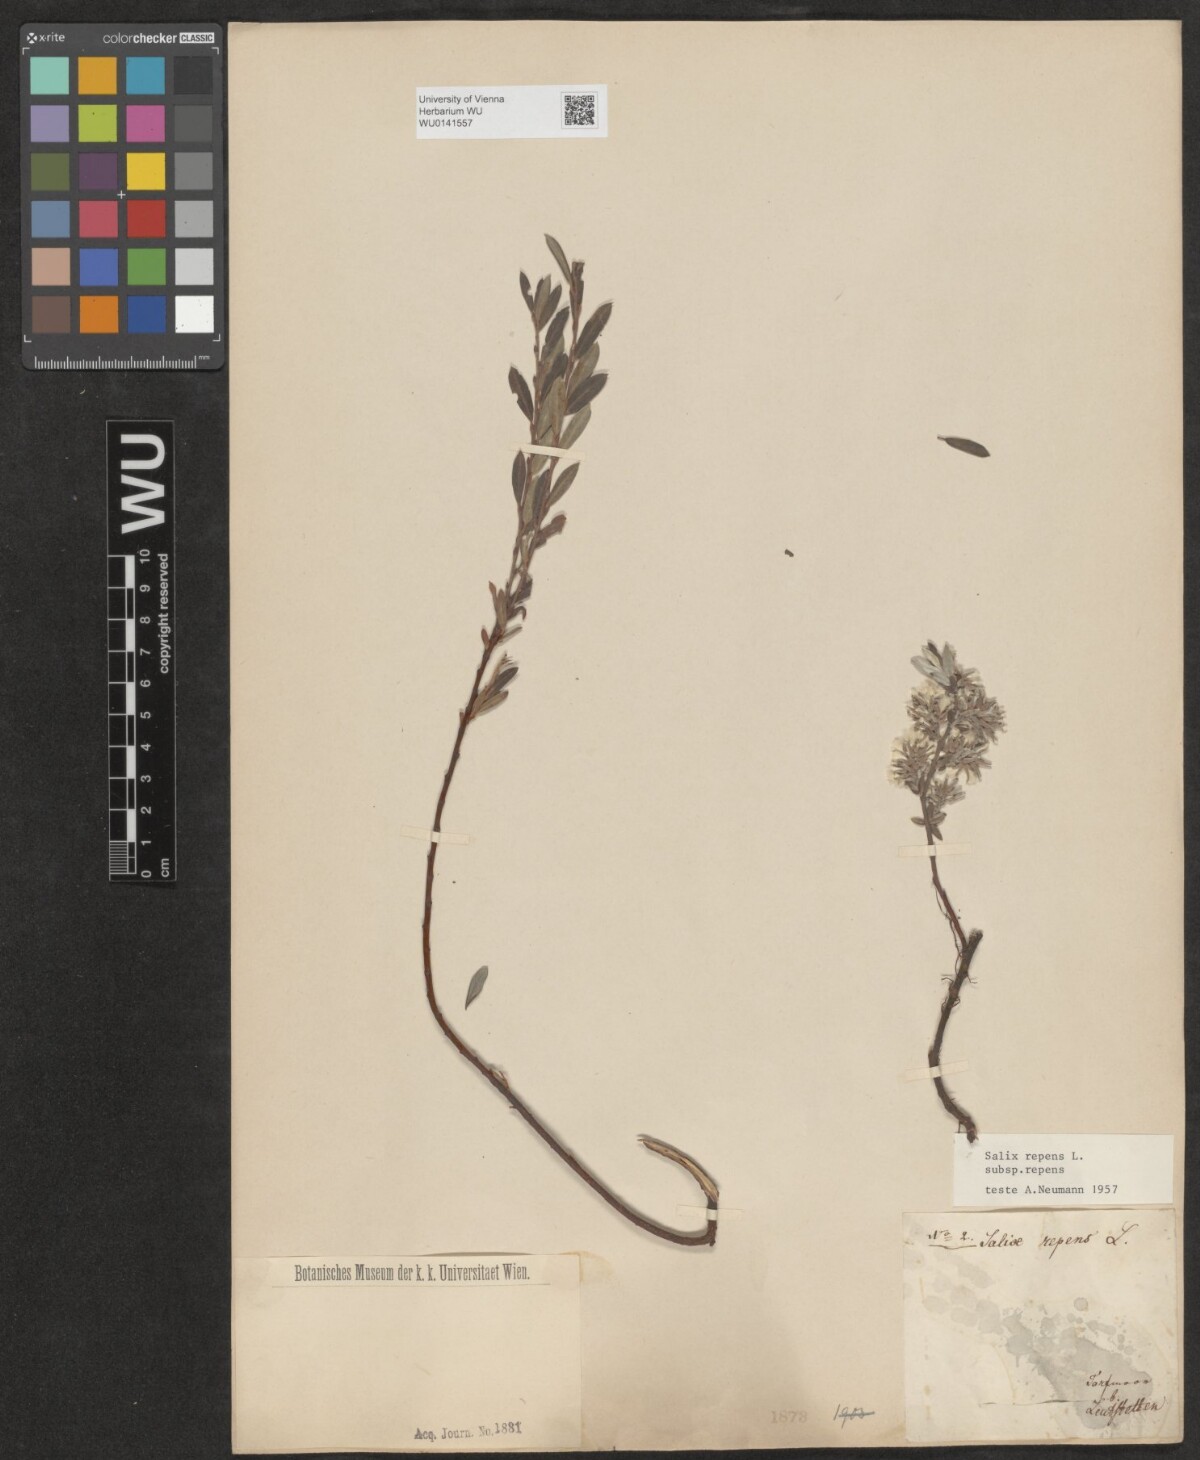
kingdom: Plantae
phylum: Tracheophyta
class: Magnoliopsida
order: Malpighiales
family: Salicaceae
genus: Salix
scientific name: Salix repens
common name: Creeping willow
